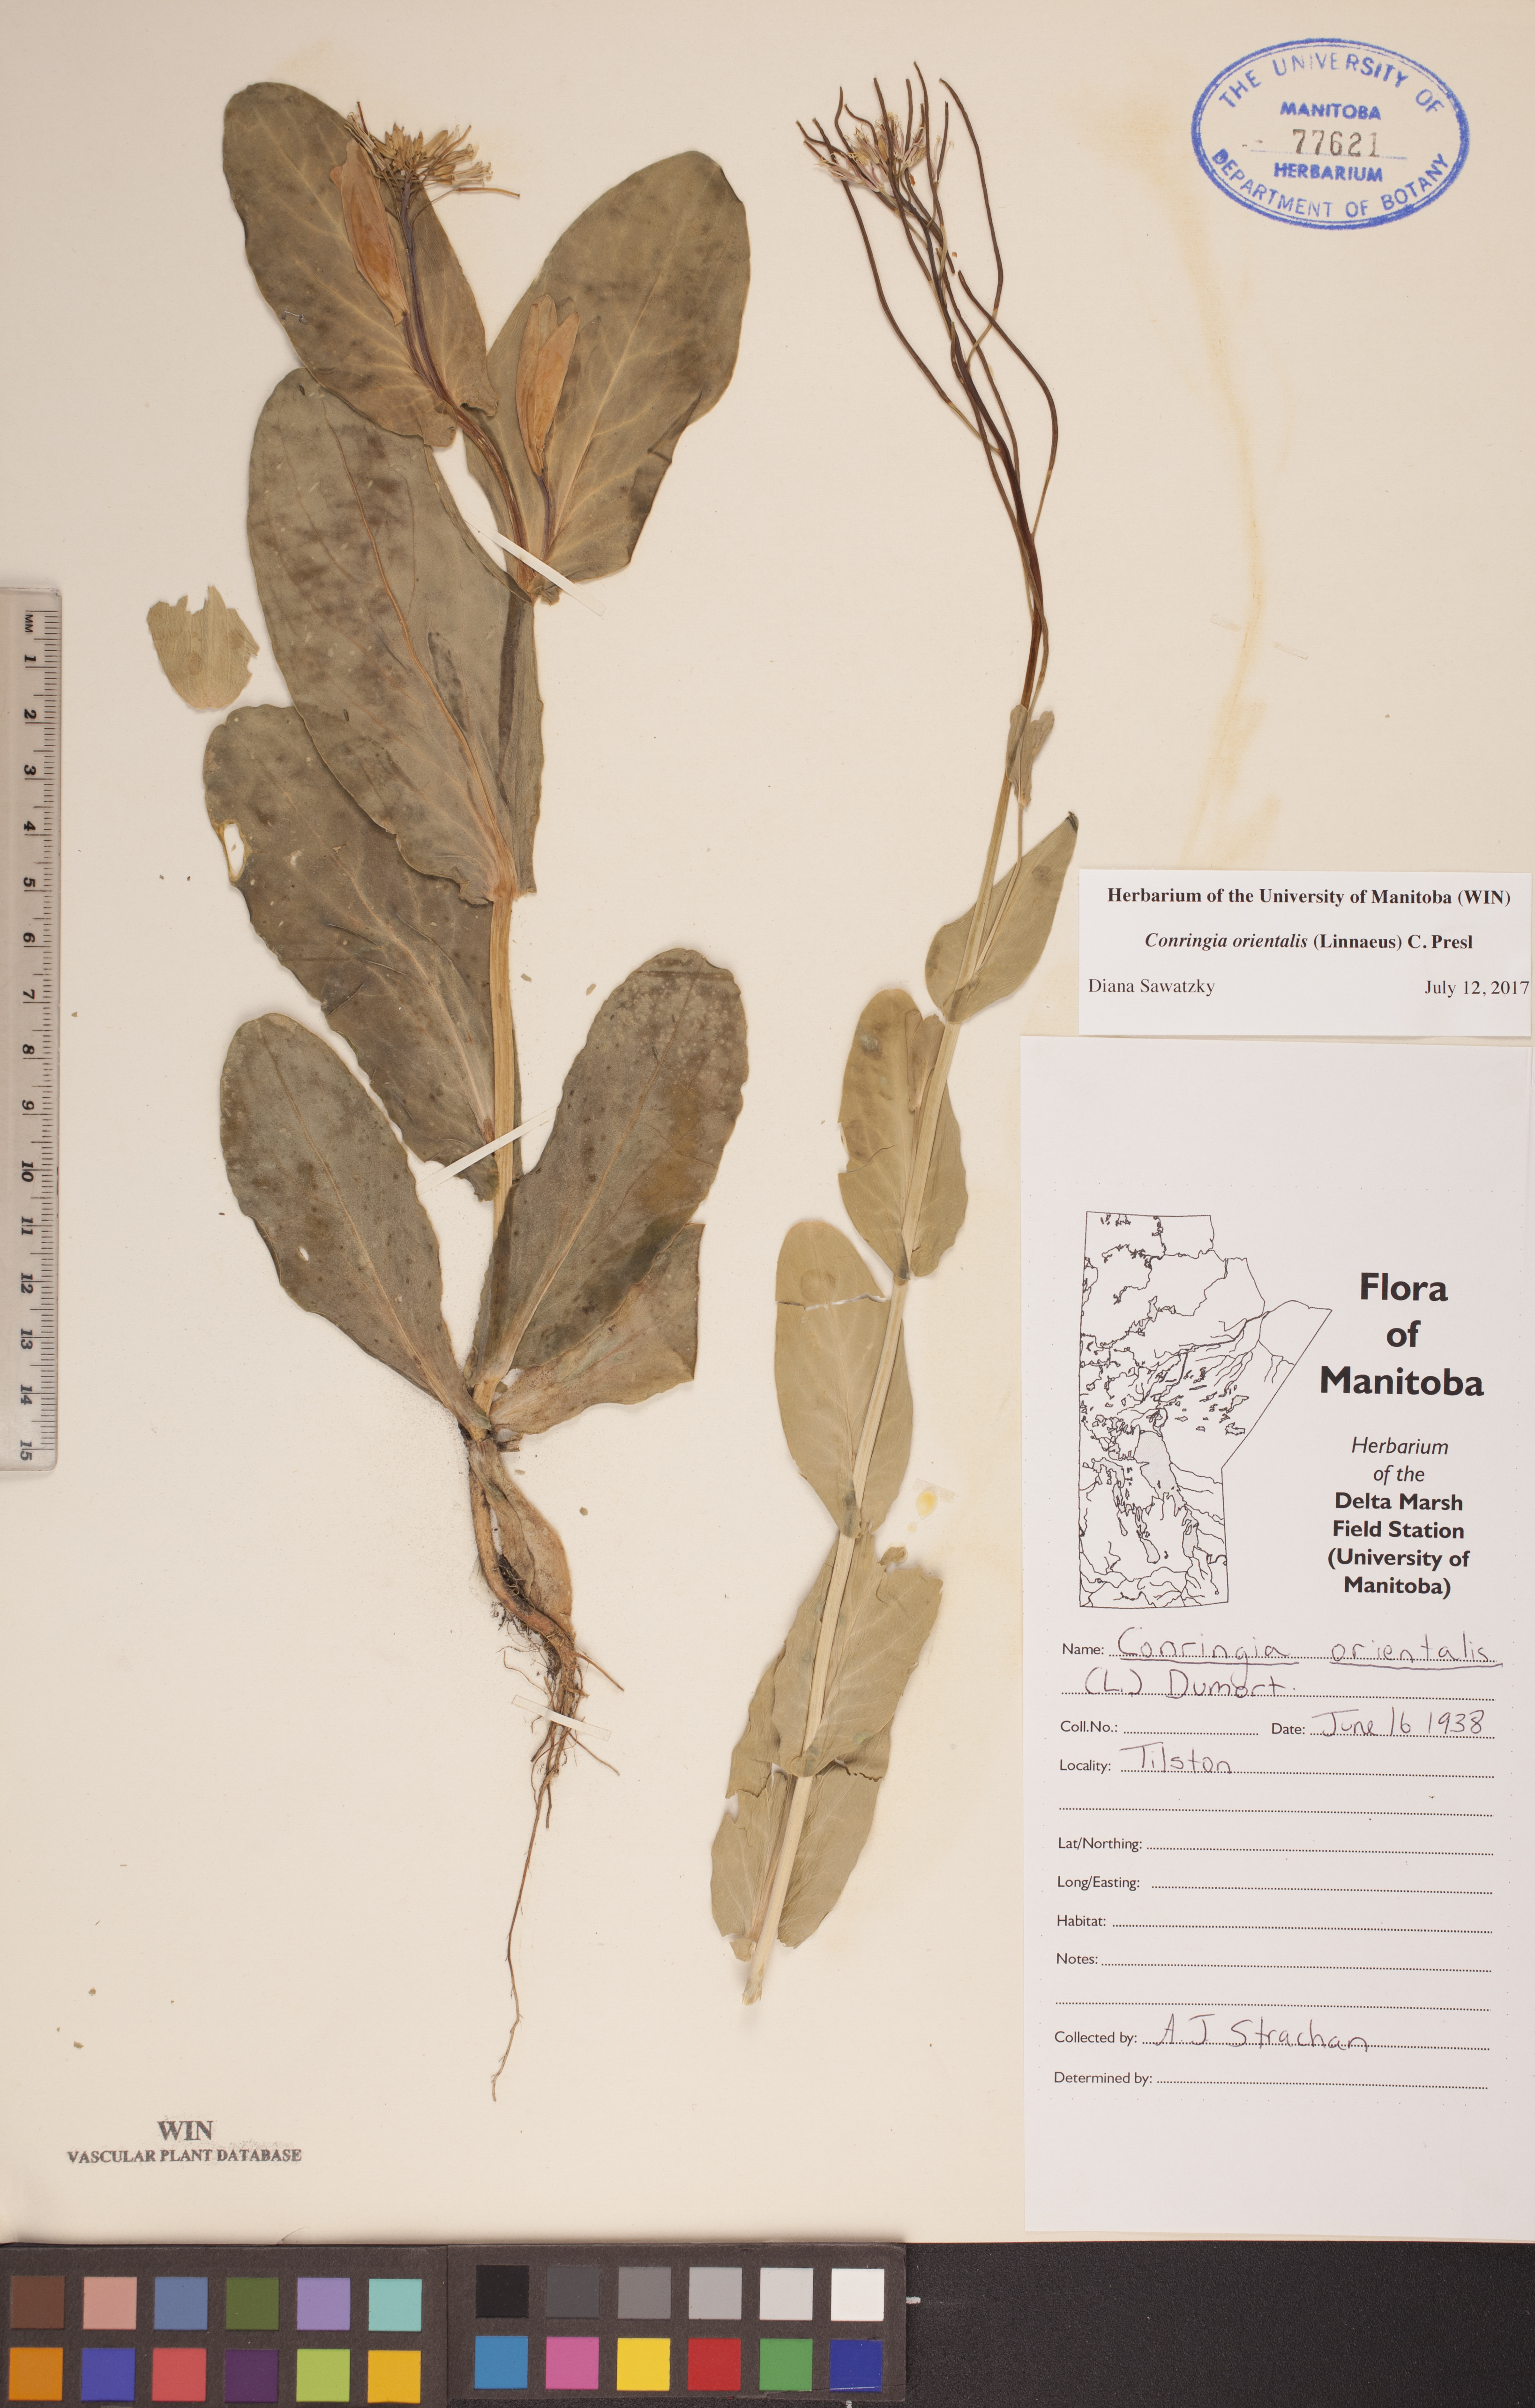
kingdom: Plantae
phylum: Tracheophyta
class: Magnoliopsida
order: Brassicales
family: Brassicaceae
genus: Conringia
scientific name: Conringia orientalis
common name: Hare's ear mustard
